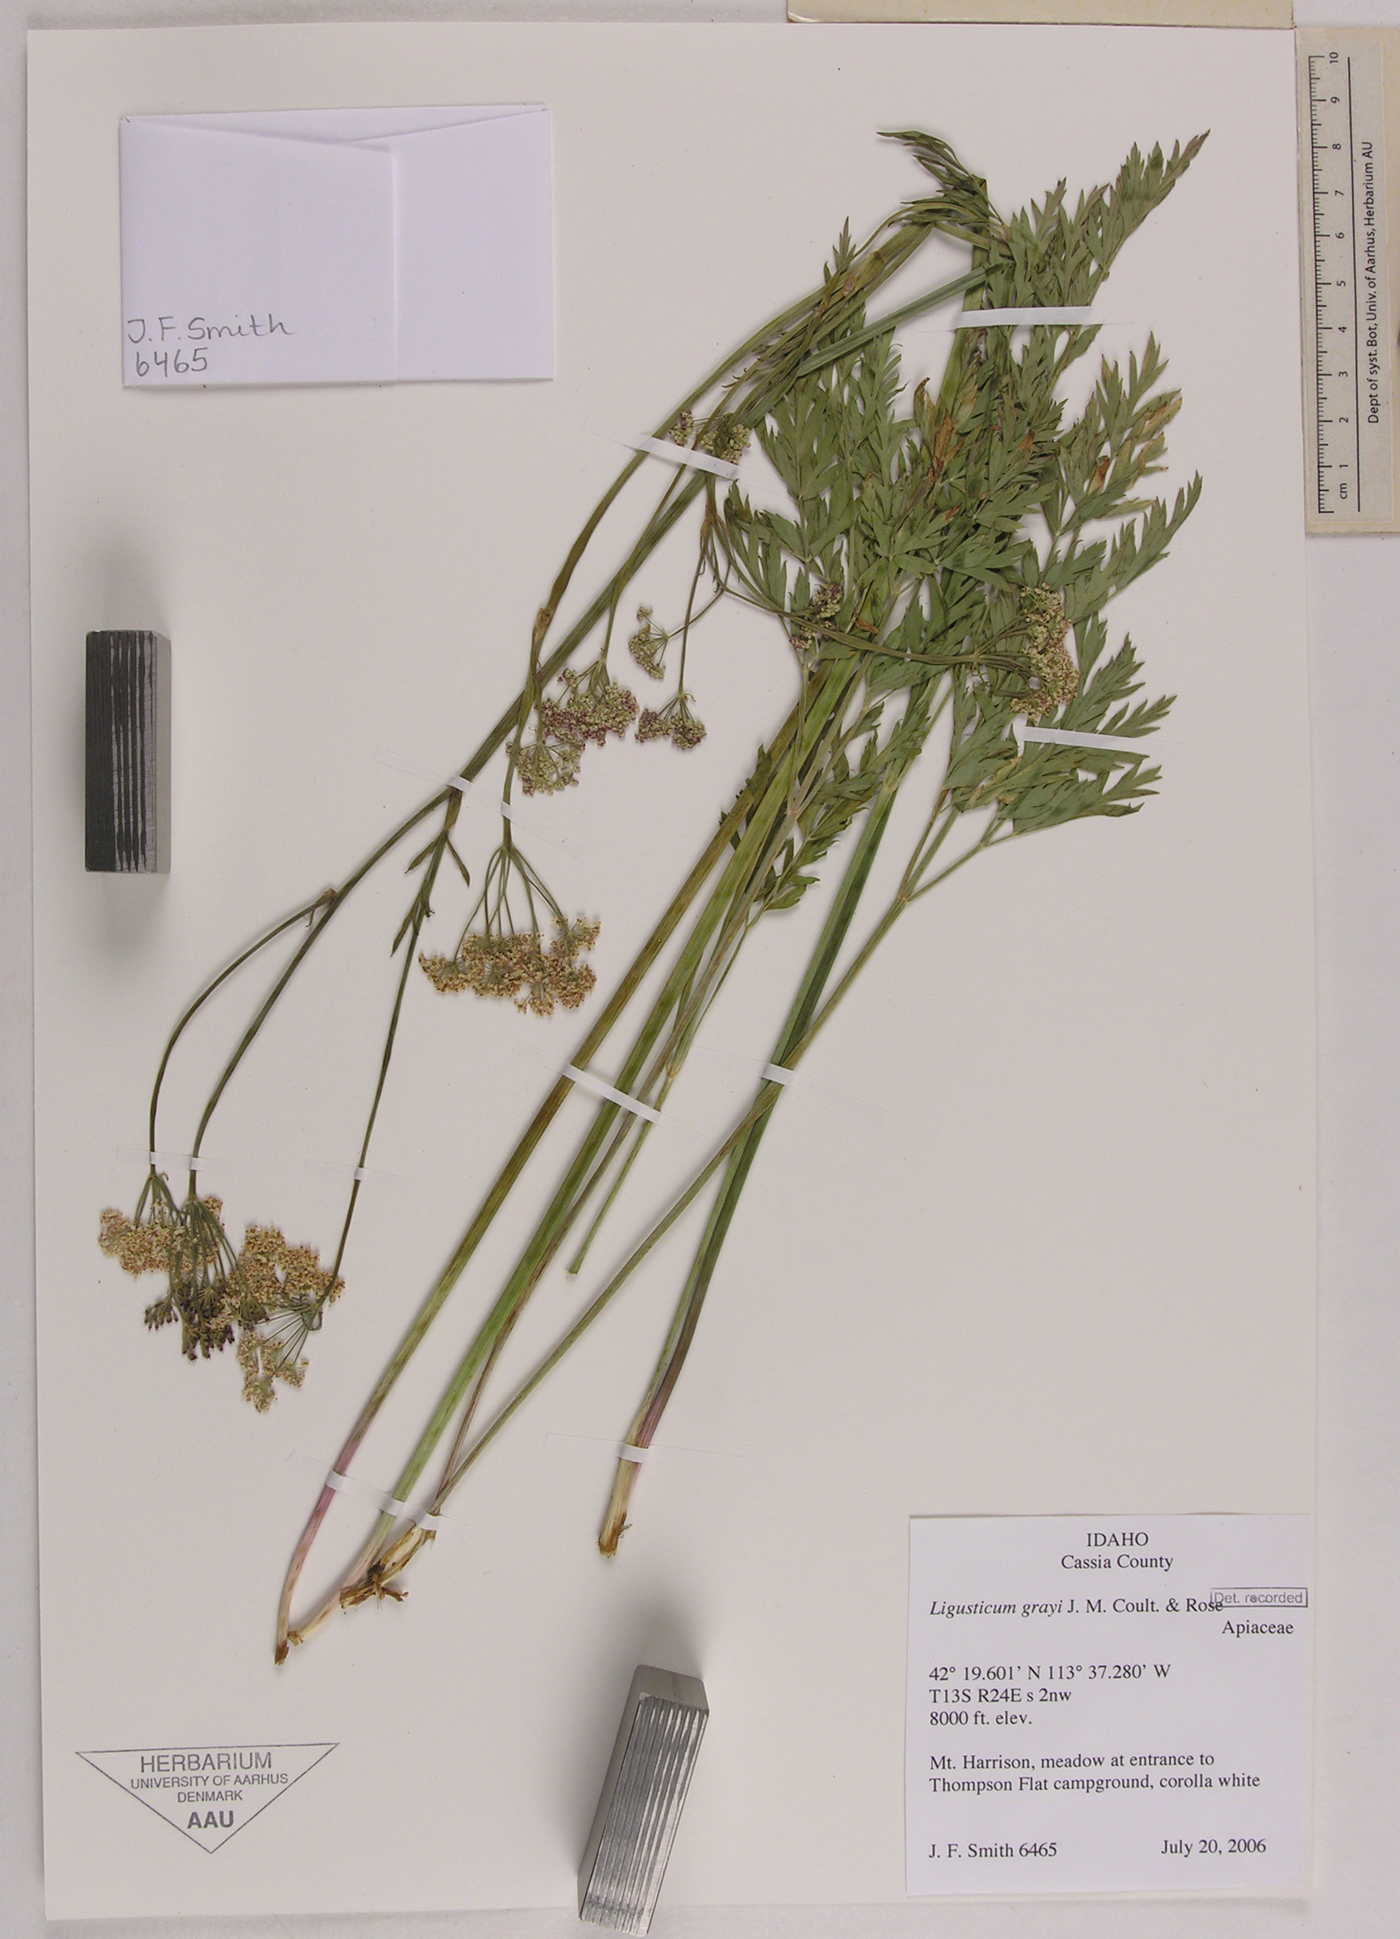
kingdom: Plantae
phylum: Tracheophyta
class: Magnoliopsida
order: Apiales
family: Apiaceae
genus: Ligusticum
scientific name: Ligusticum grayi
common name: Gray's licorice-root
